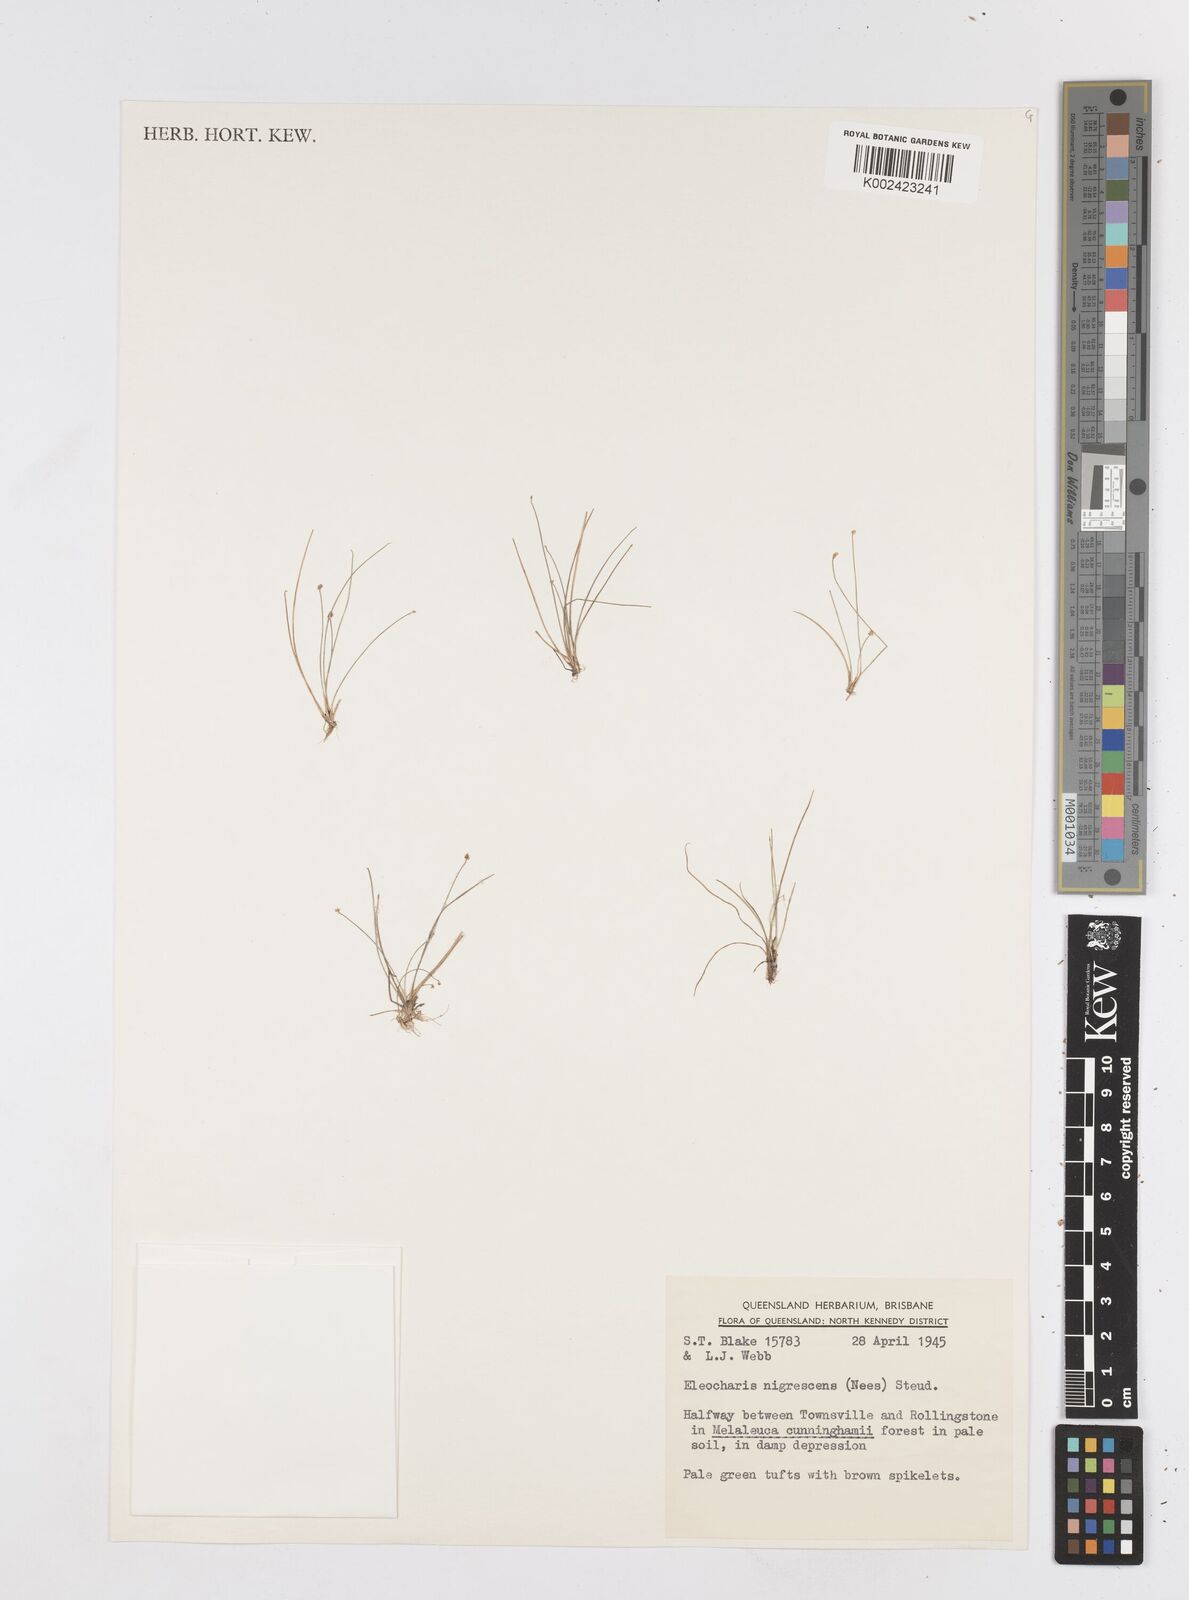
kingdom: Plantae
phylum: Tracheophyta
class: Liliopsida
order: Poales
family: Cyperaceae
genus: Eleocharis
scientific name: Eleocharis nigrescens
